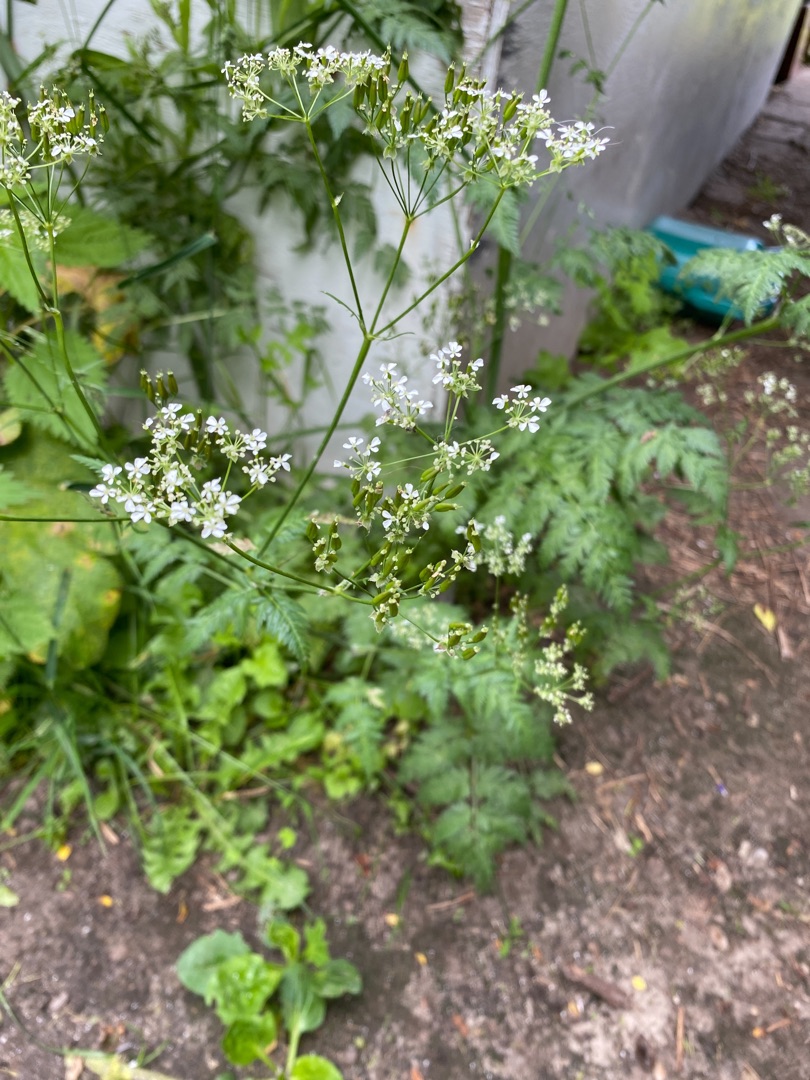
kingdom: Plantae
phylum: Tracheophyta
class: Magnoliopsida
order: Apiales
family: Apiaceae
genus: Anthriscus
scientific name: Anthriscus sylvestris
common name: Vild kørvel
